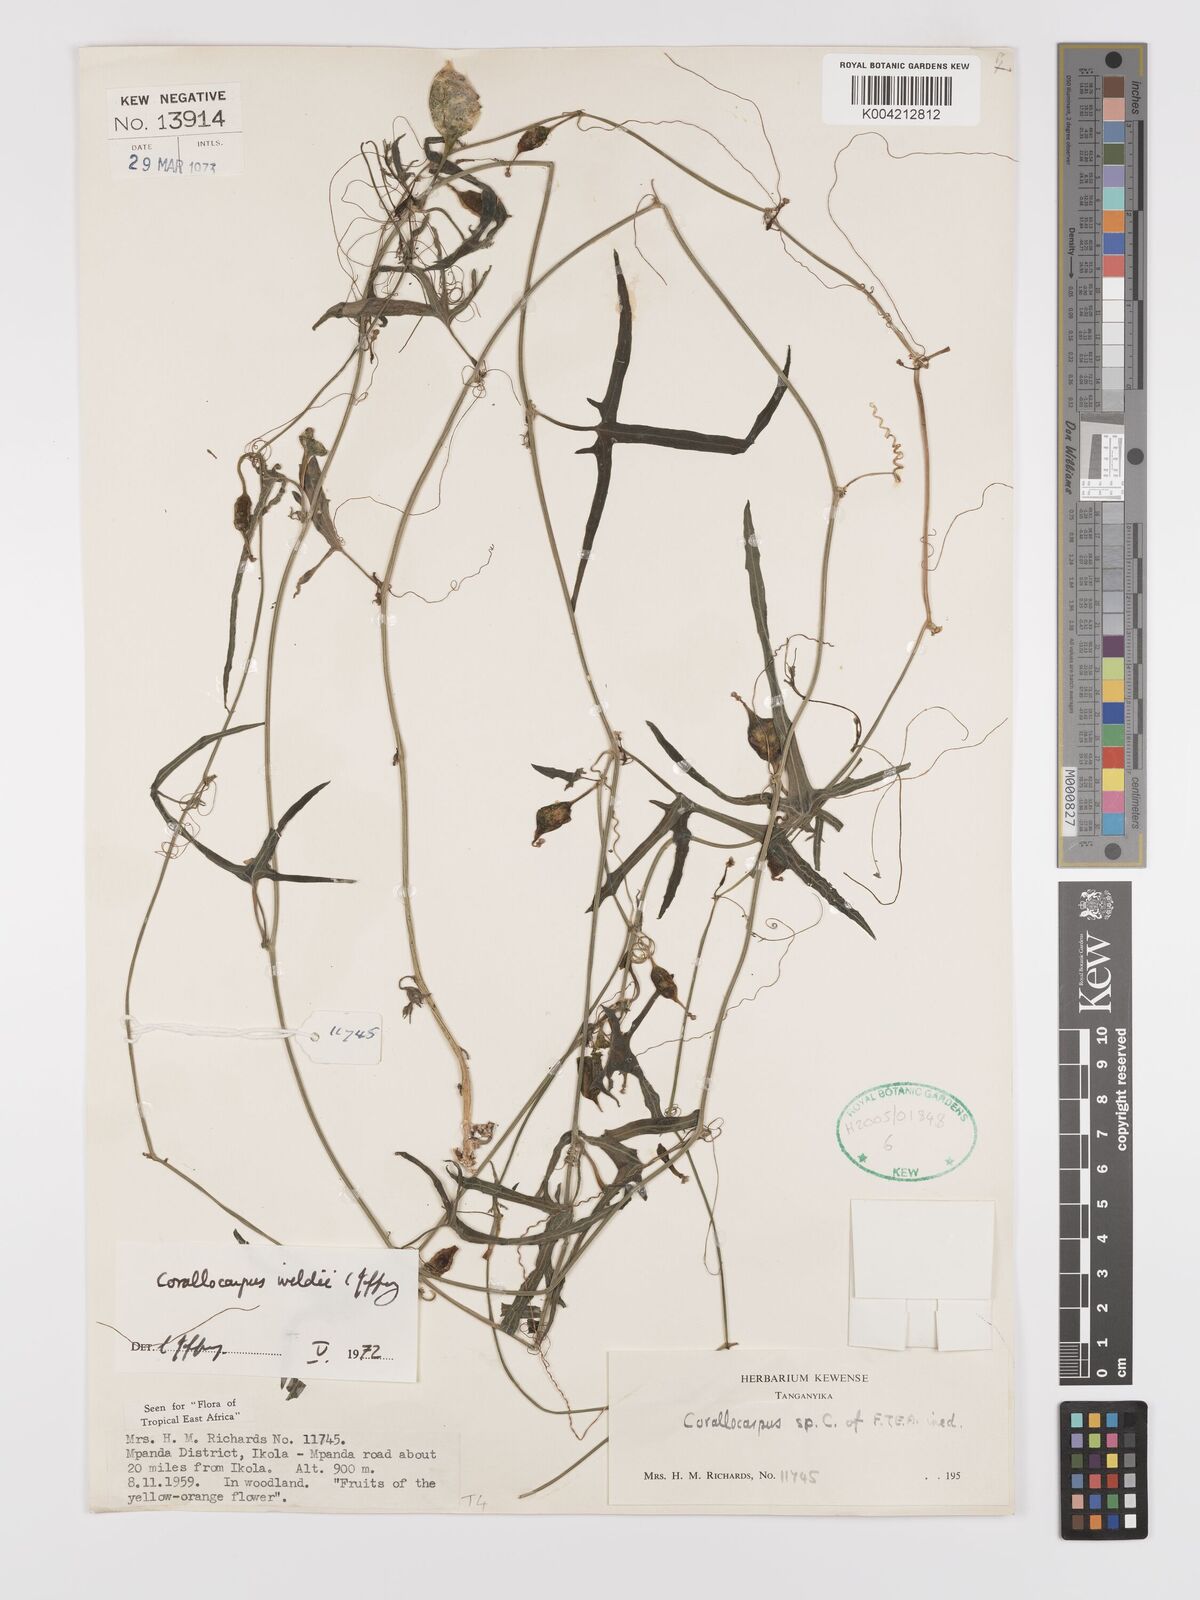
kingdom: Plantae
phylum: Tracheophyta
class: Magnoliopsida
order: Cucurbitales
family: Cucurbitaceae
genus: Corallocarpus
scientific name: Corallocarpus tenuissimus
